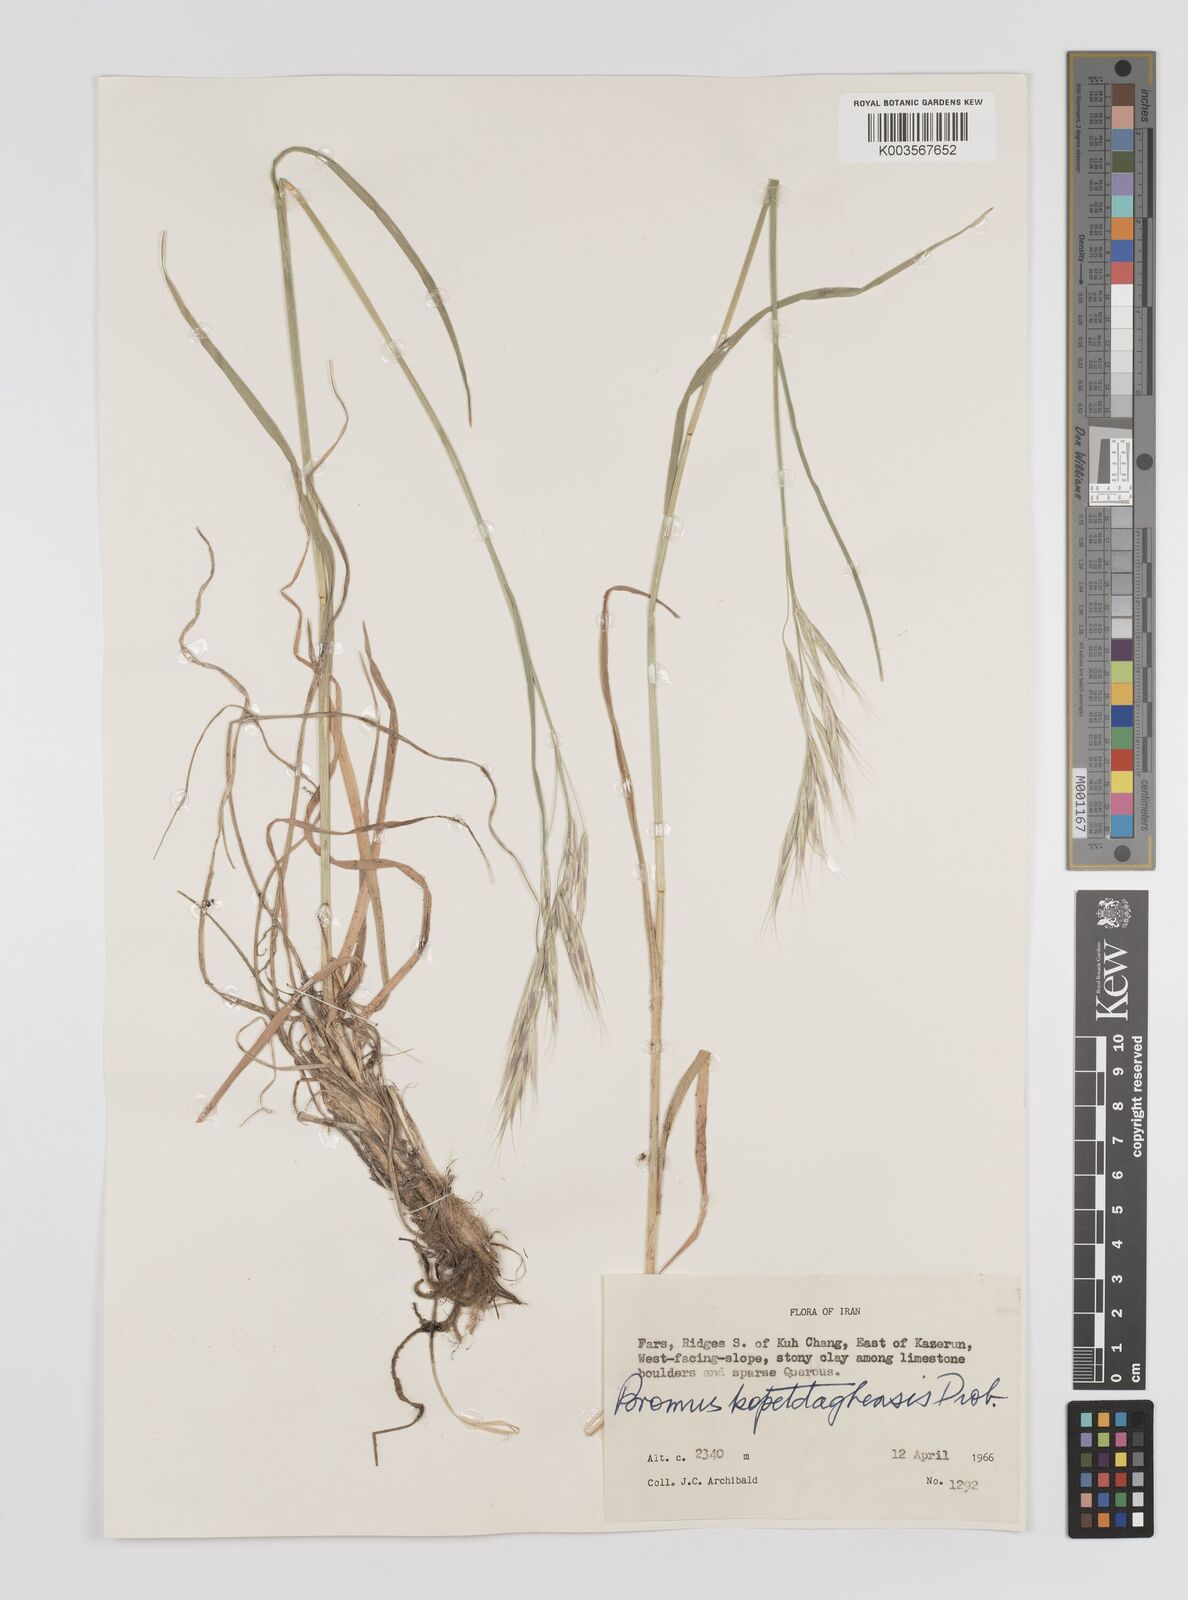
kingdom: Plantae
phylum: Tracheophyta
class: Liliopsida
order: Poales
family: Poaceae
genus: Bromus
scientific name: Bromus kopetdagensis
